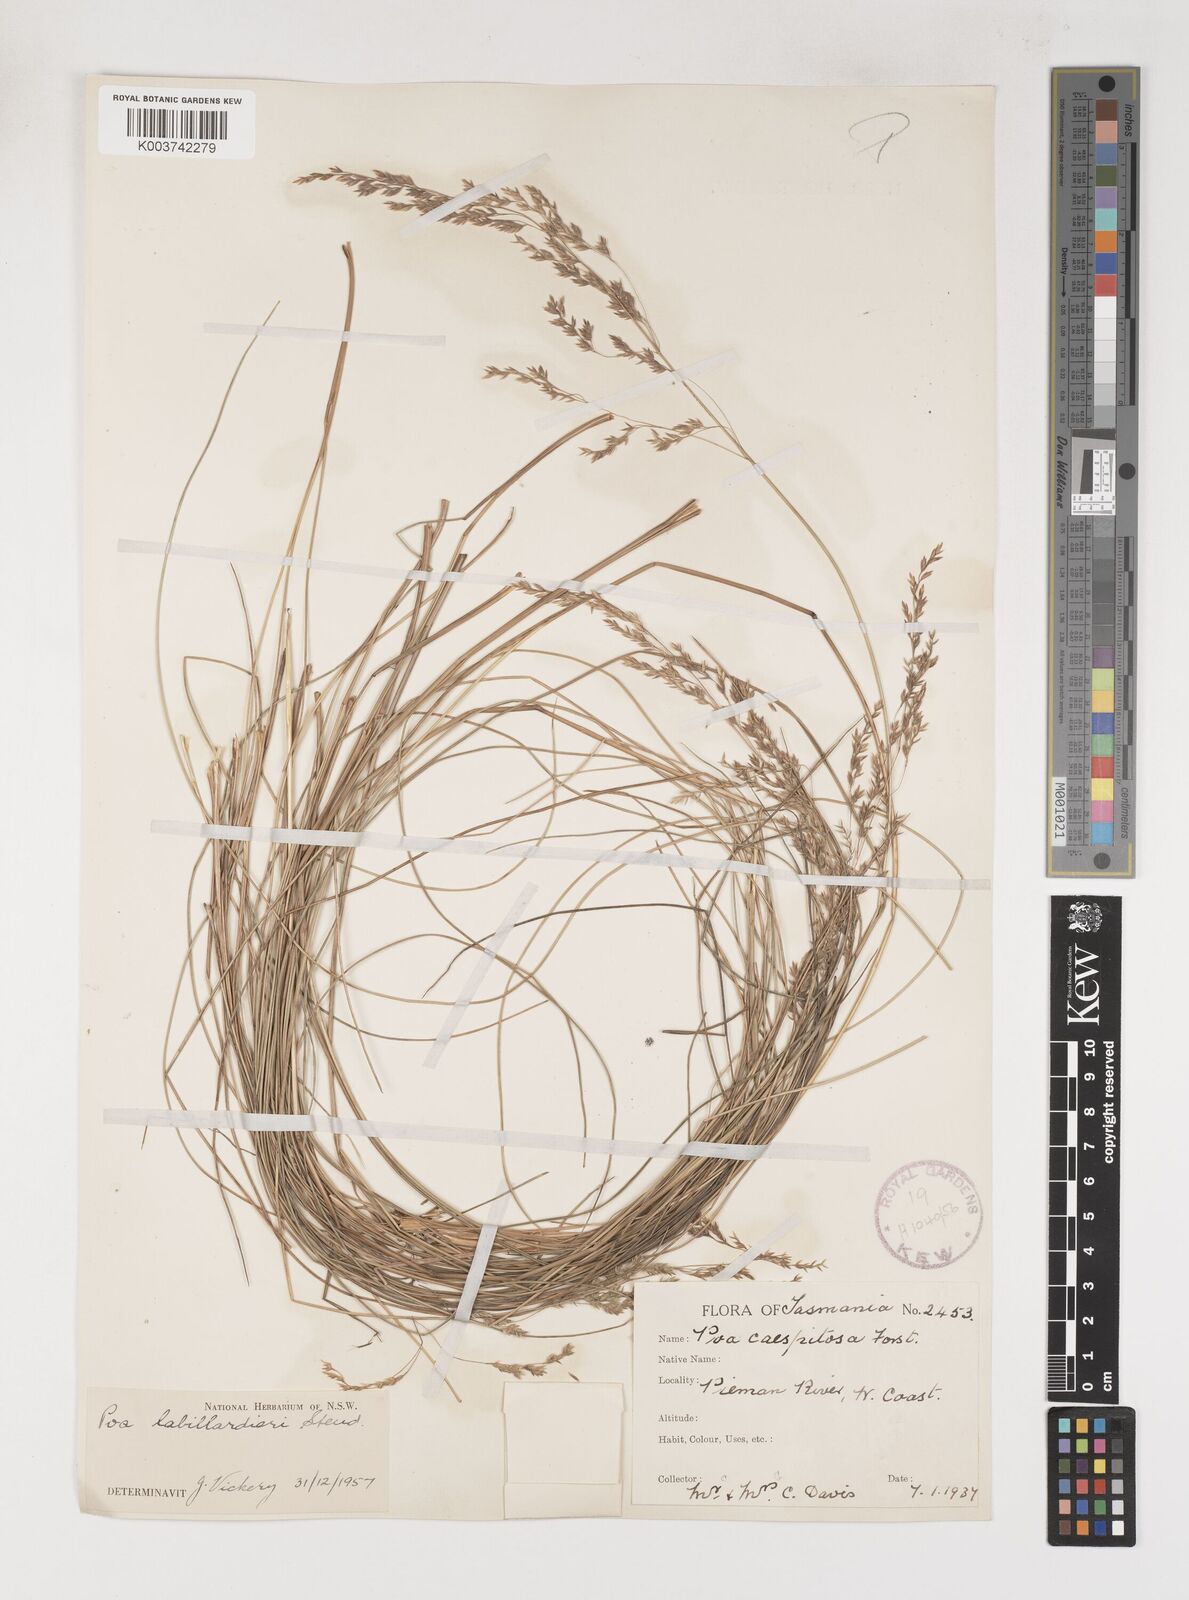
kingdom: Plantae
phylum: Tracheophyta
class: Liliopsida
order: Poales
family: Poaceae
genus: Poa
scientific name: Poa labillardierei
